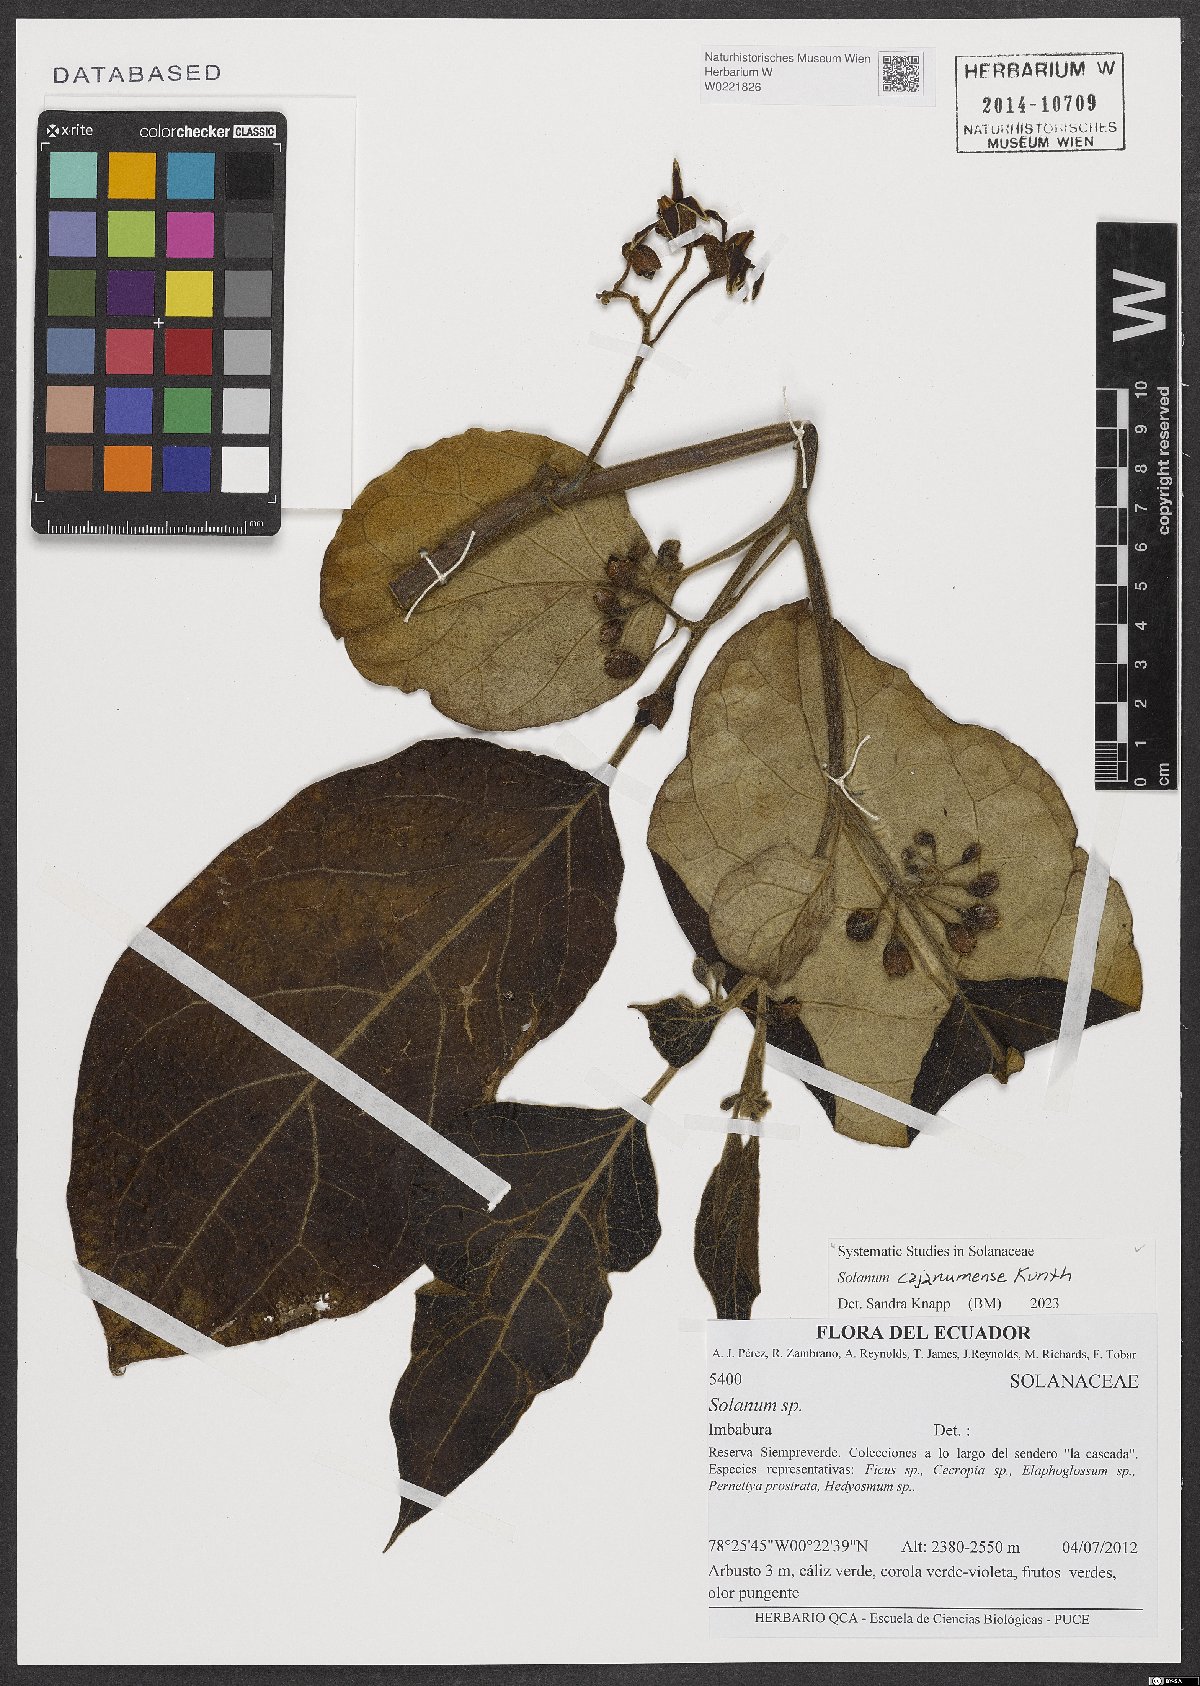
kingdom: Plantae
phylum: Tracheophyta
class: Magnoliopsida
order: Solanales
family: Solanaceae
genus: Solanum
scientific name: Solanum cajanumense
